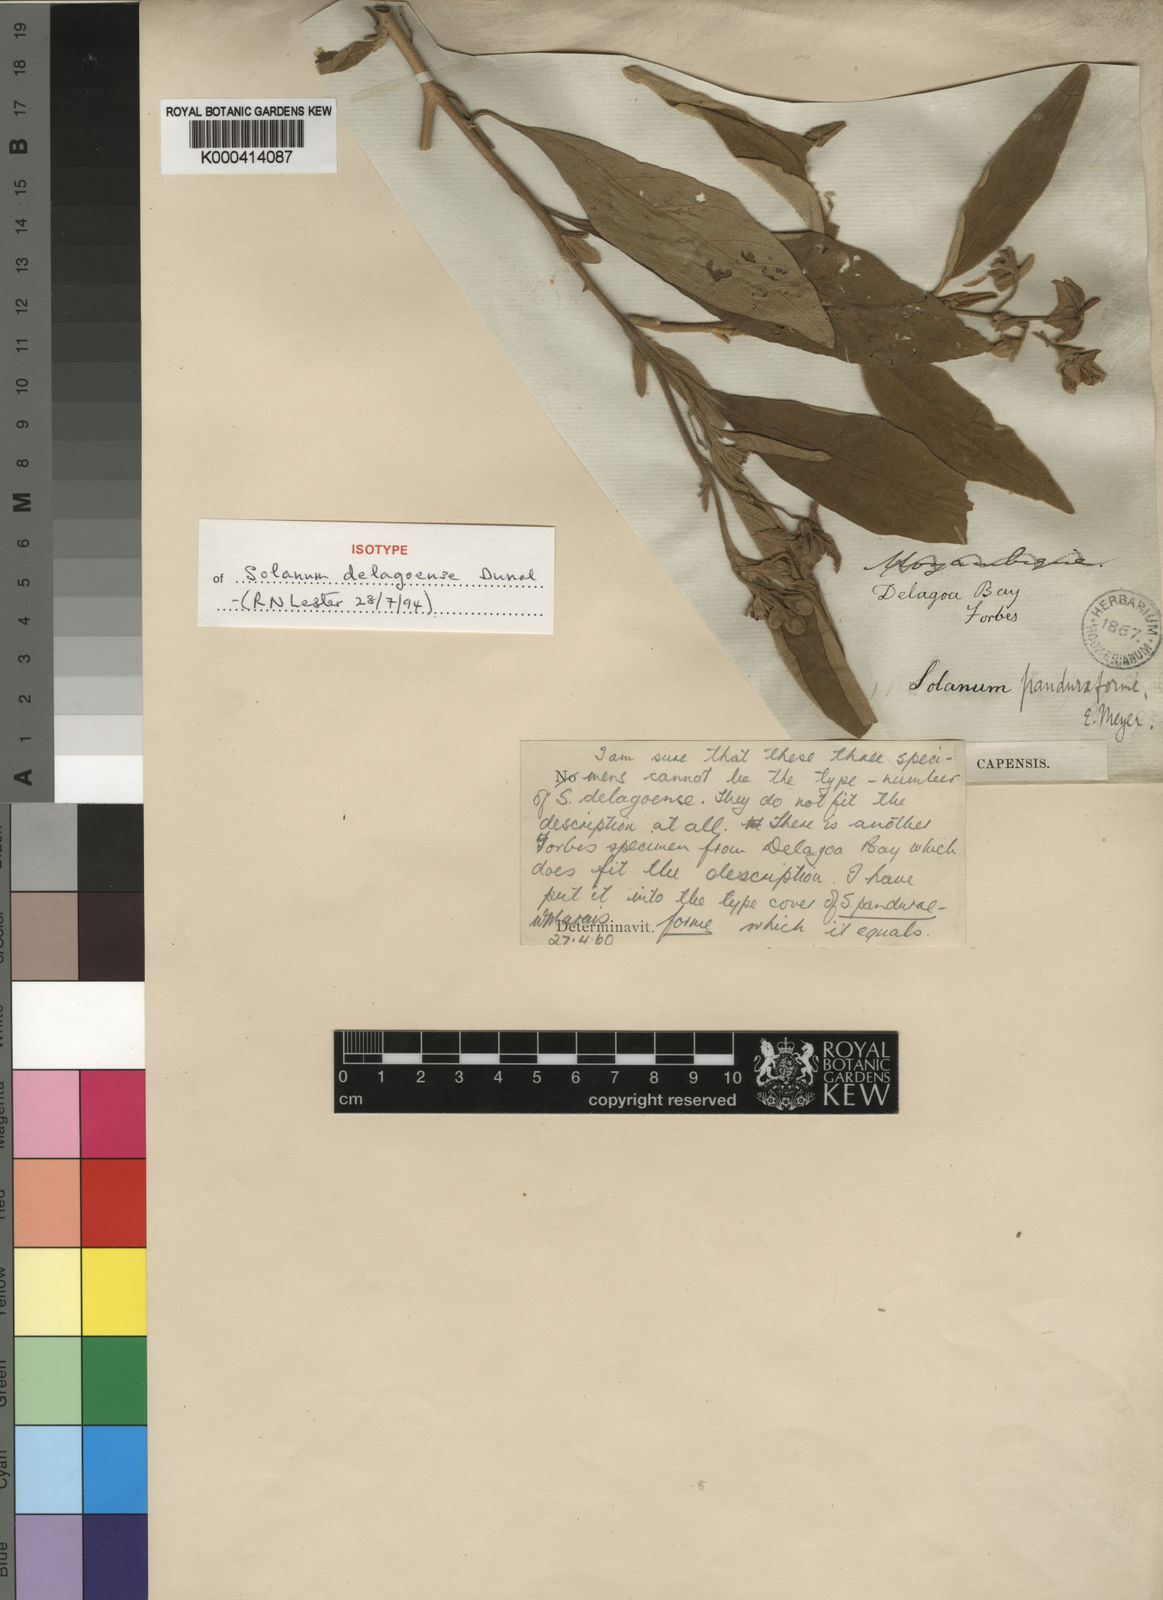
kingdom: Plantae
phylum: Tracheophyta
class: Magnoliopsida
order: Solanales
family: Solanaceae
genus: Solanum
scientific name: Solanum incanum
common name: Bitter apple
